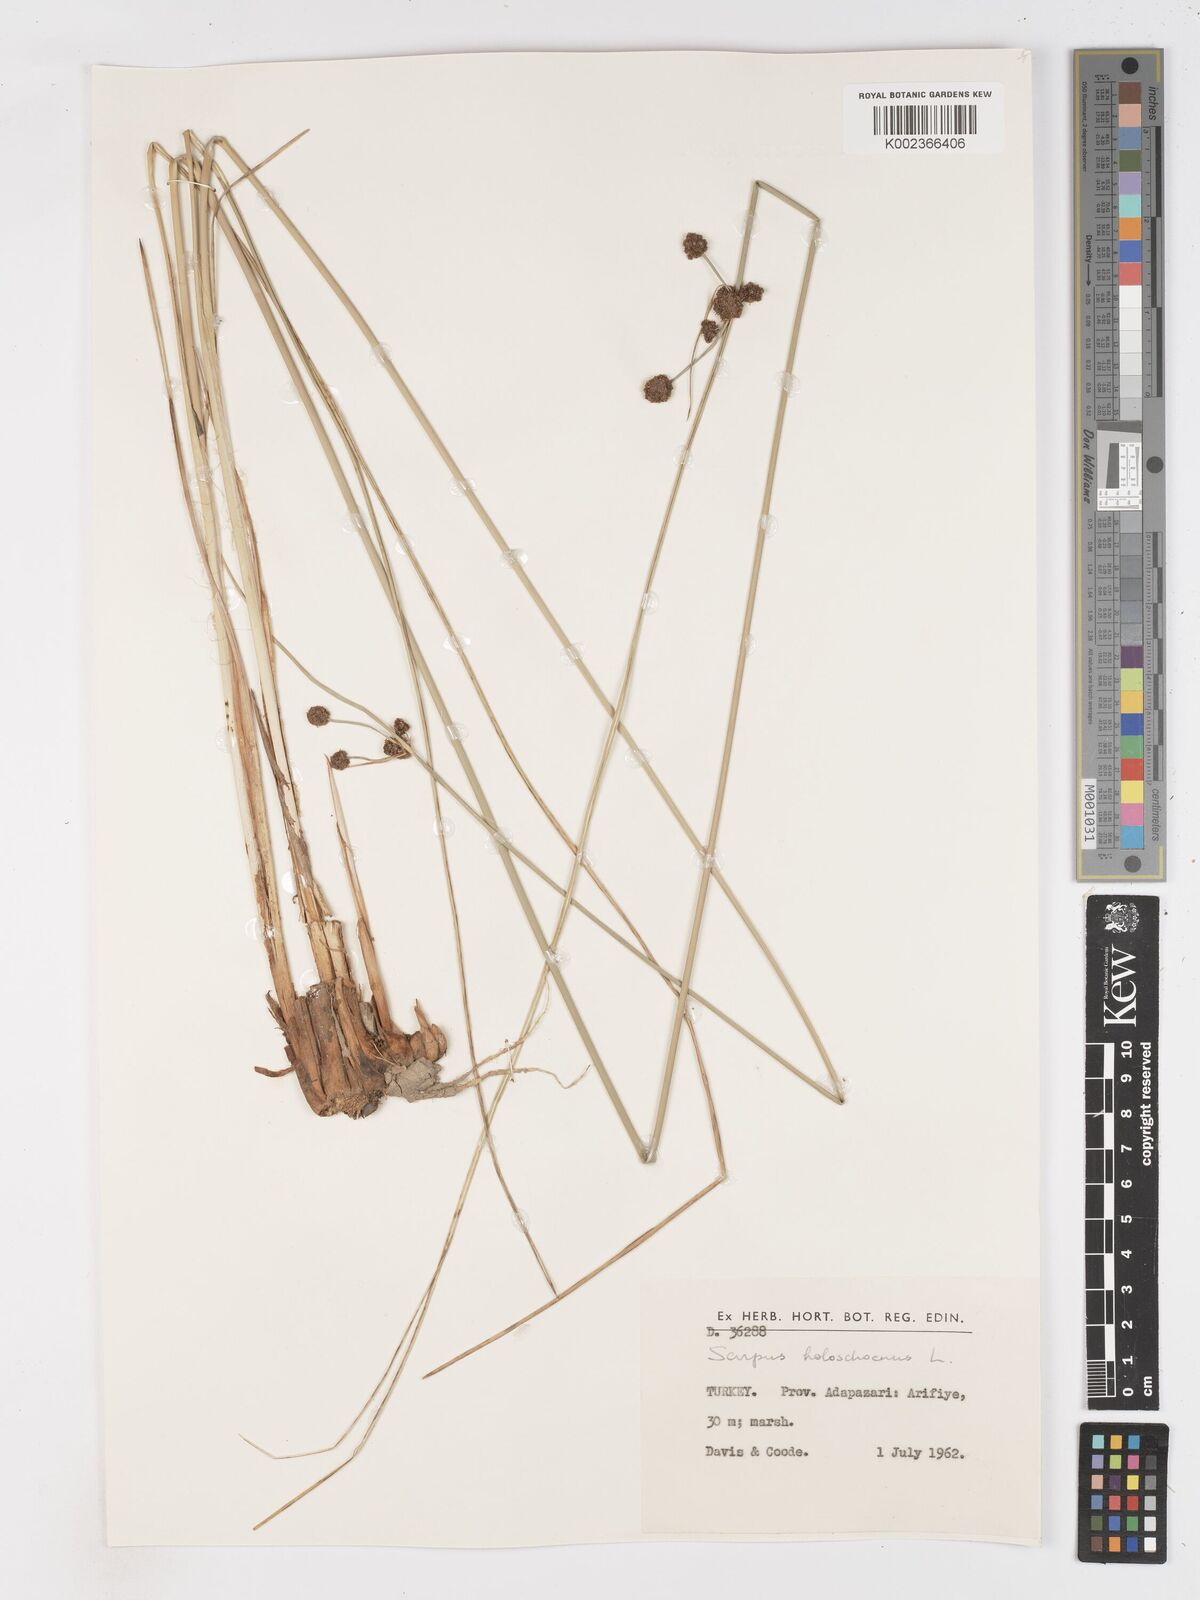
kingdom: Plantae
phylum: Tracheophyta
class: Liliopsida
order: Poales
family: Cyperaceae
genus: Scirpoides
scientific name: Scirpoides holoschoenus
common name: Round-headed club-rush
